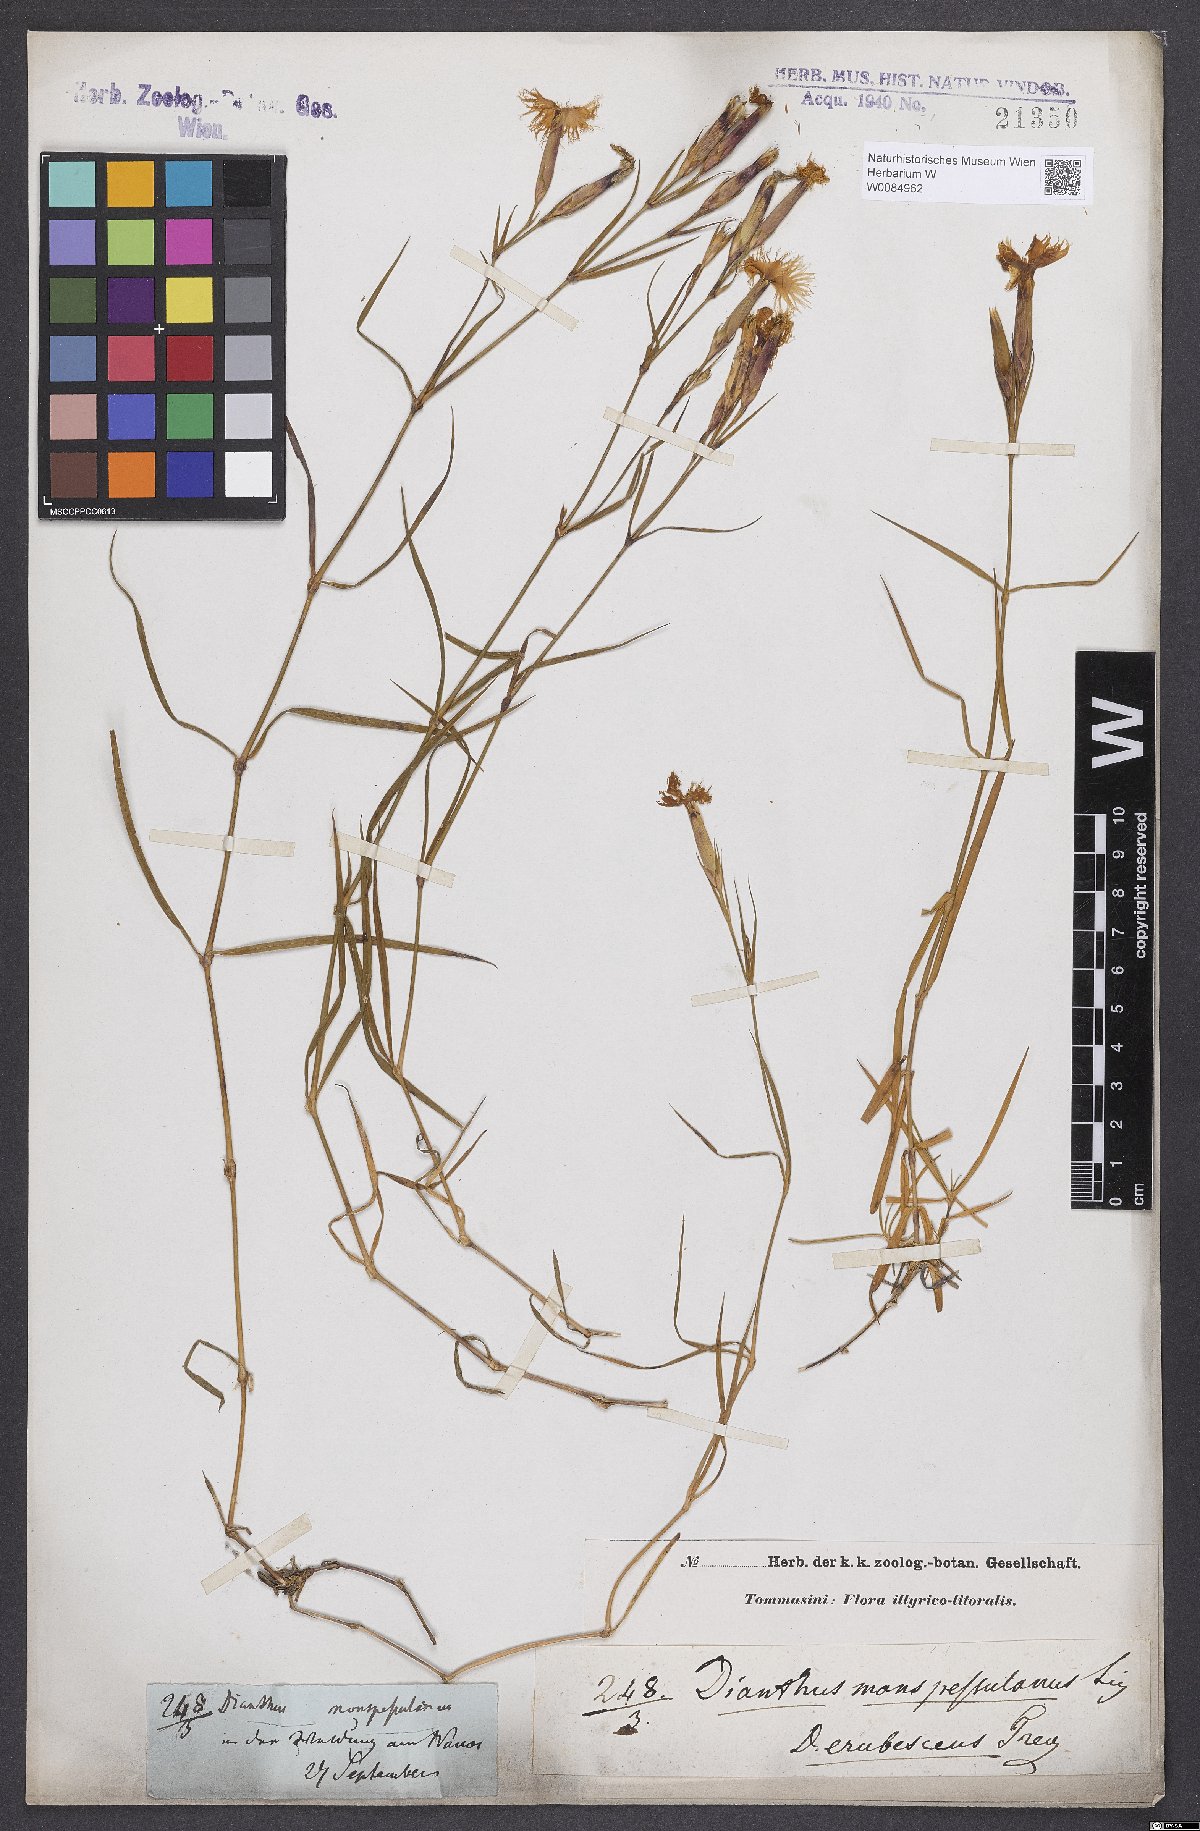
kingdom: Plantae
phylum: Tracheophyta
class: Magnoliopsida
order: Caryophyllales
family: Caryophyllaceae
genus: Dianthus
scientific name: Dianthus hyssopifolius
